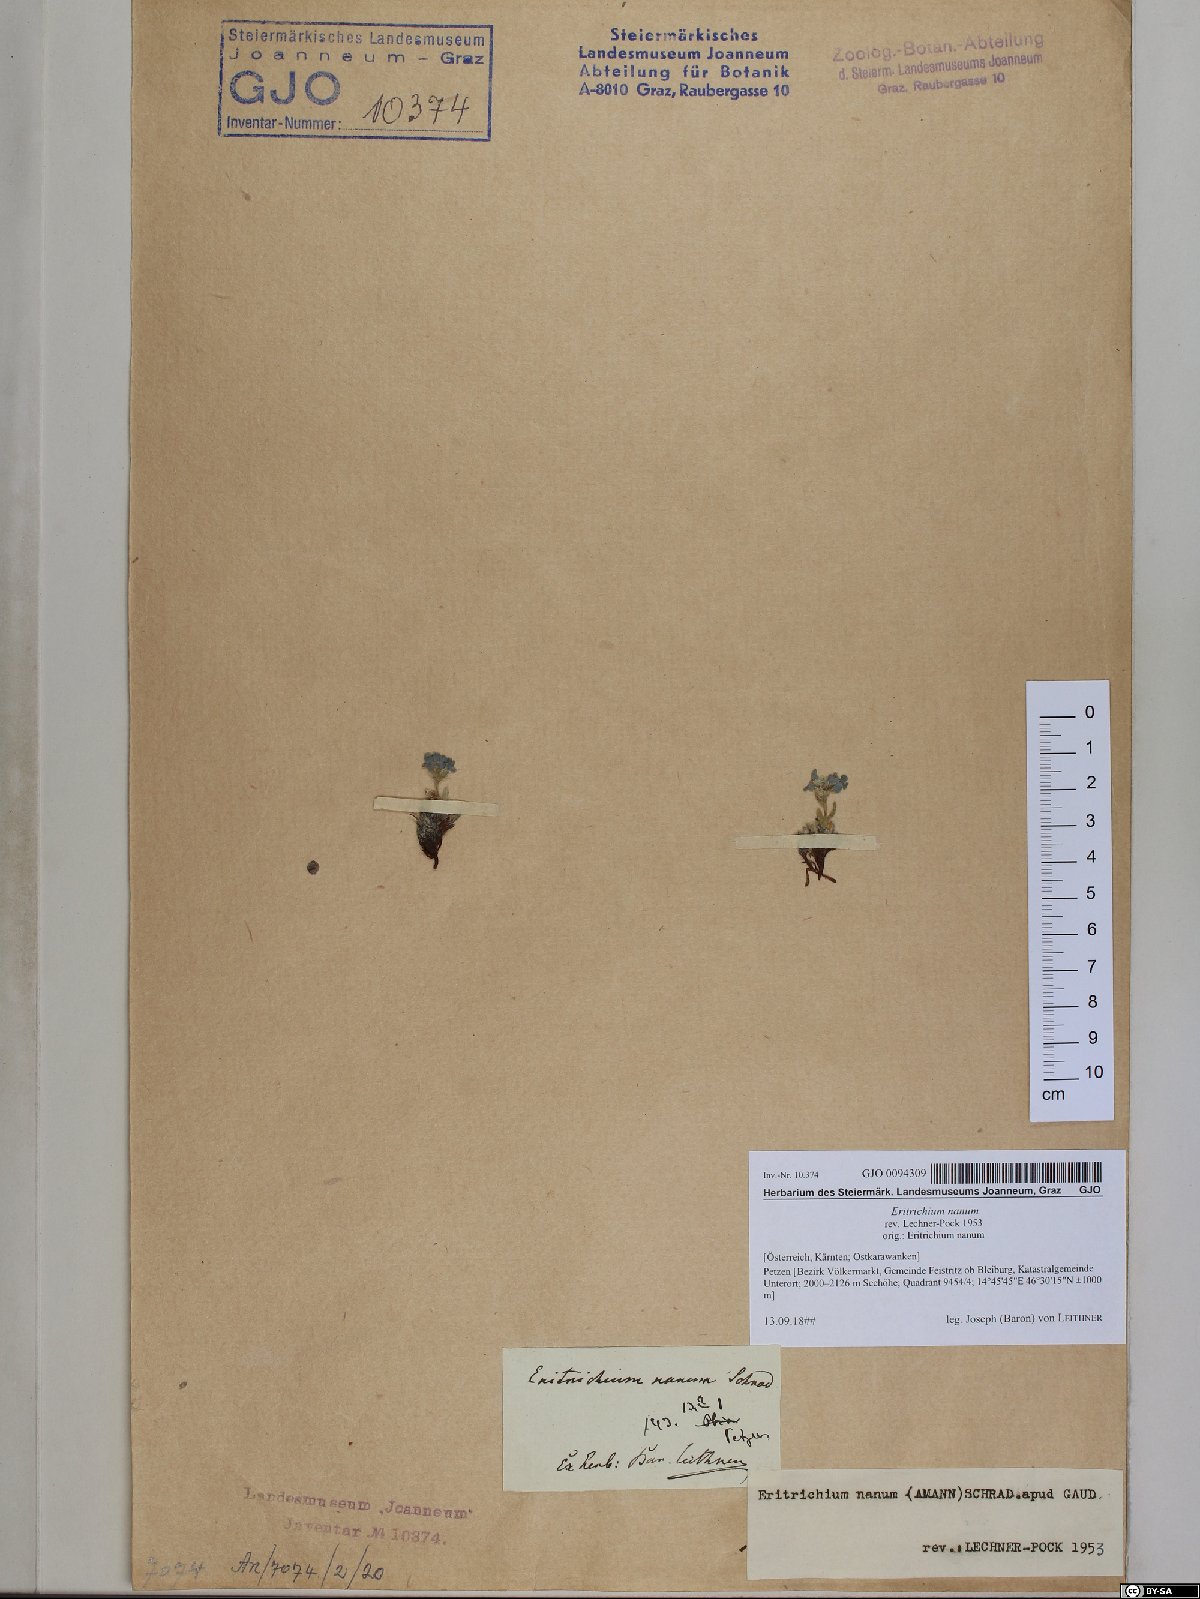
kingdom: Plantae
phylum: Tracheophyta
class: Magnoliopsida
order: Boraginales
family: Boraginaceae
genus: Eritrichium
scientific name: Eritrichium nanum
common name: King-of-the-alps
